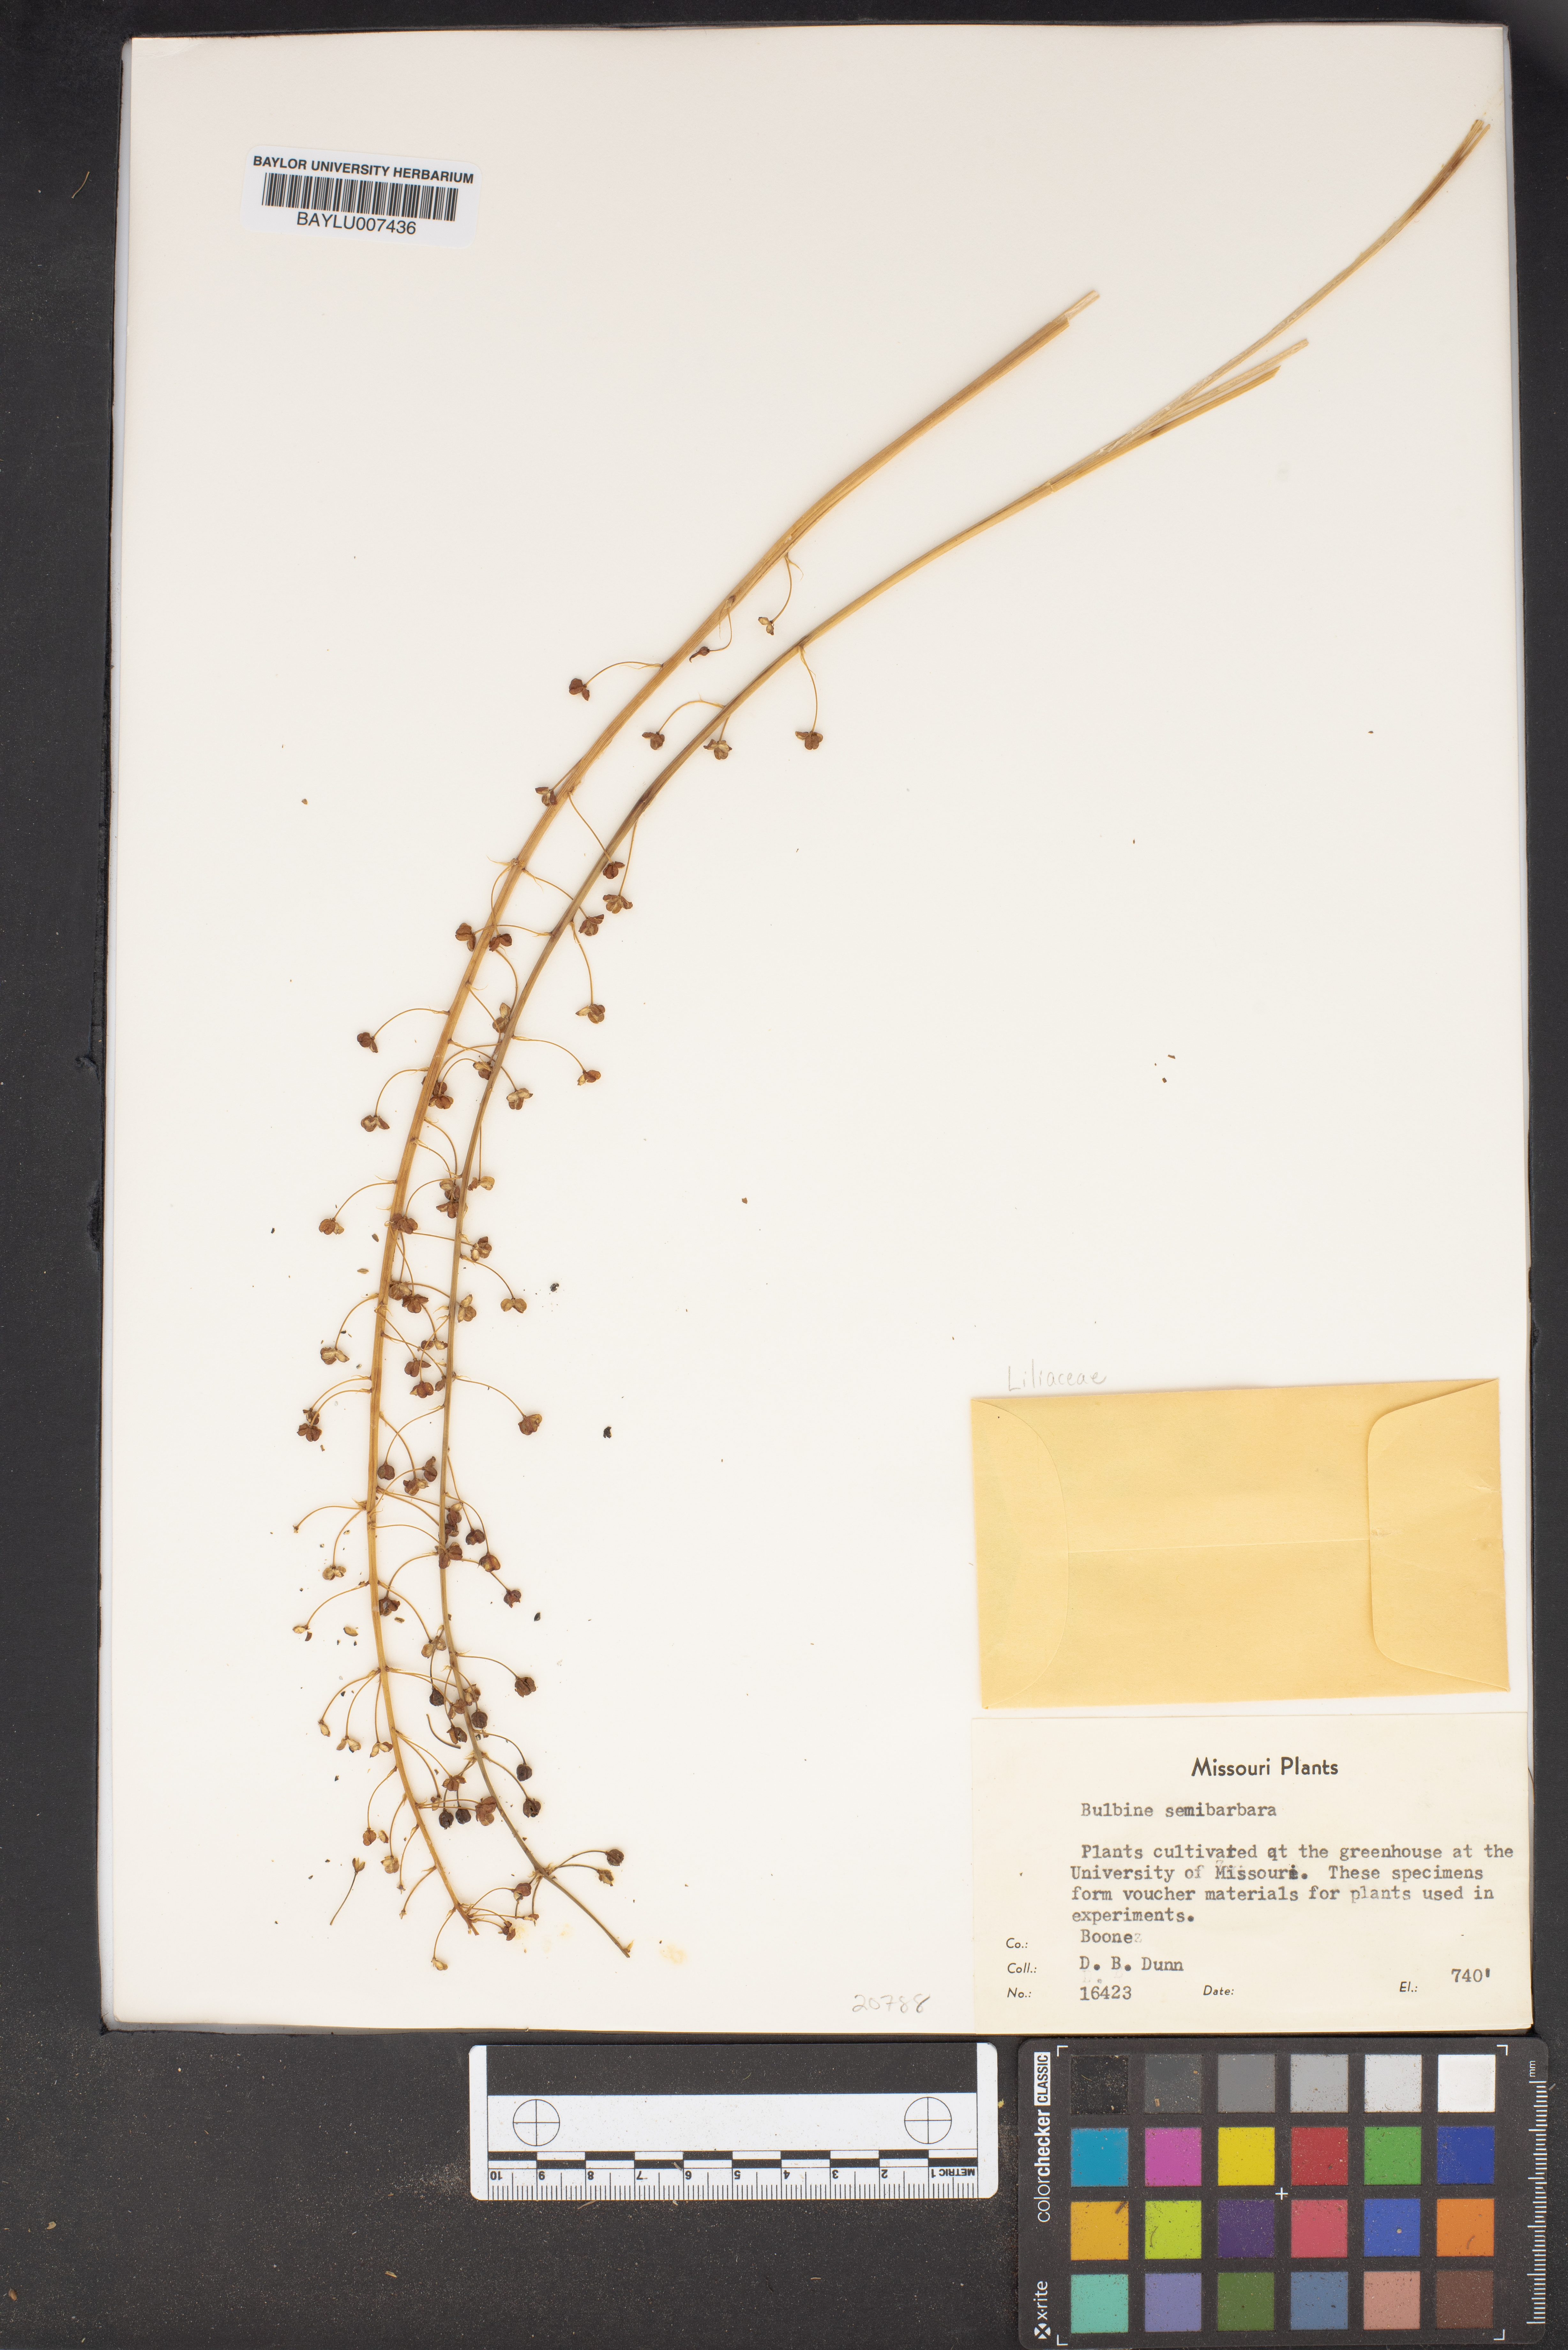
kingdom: Plantae
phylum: Tracheophyta
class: Liliopsida
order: Asparagales
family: Asphodelaceae
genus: Bulbine
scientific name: Bulbine semibarbata
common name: Leek lily
